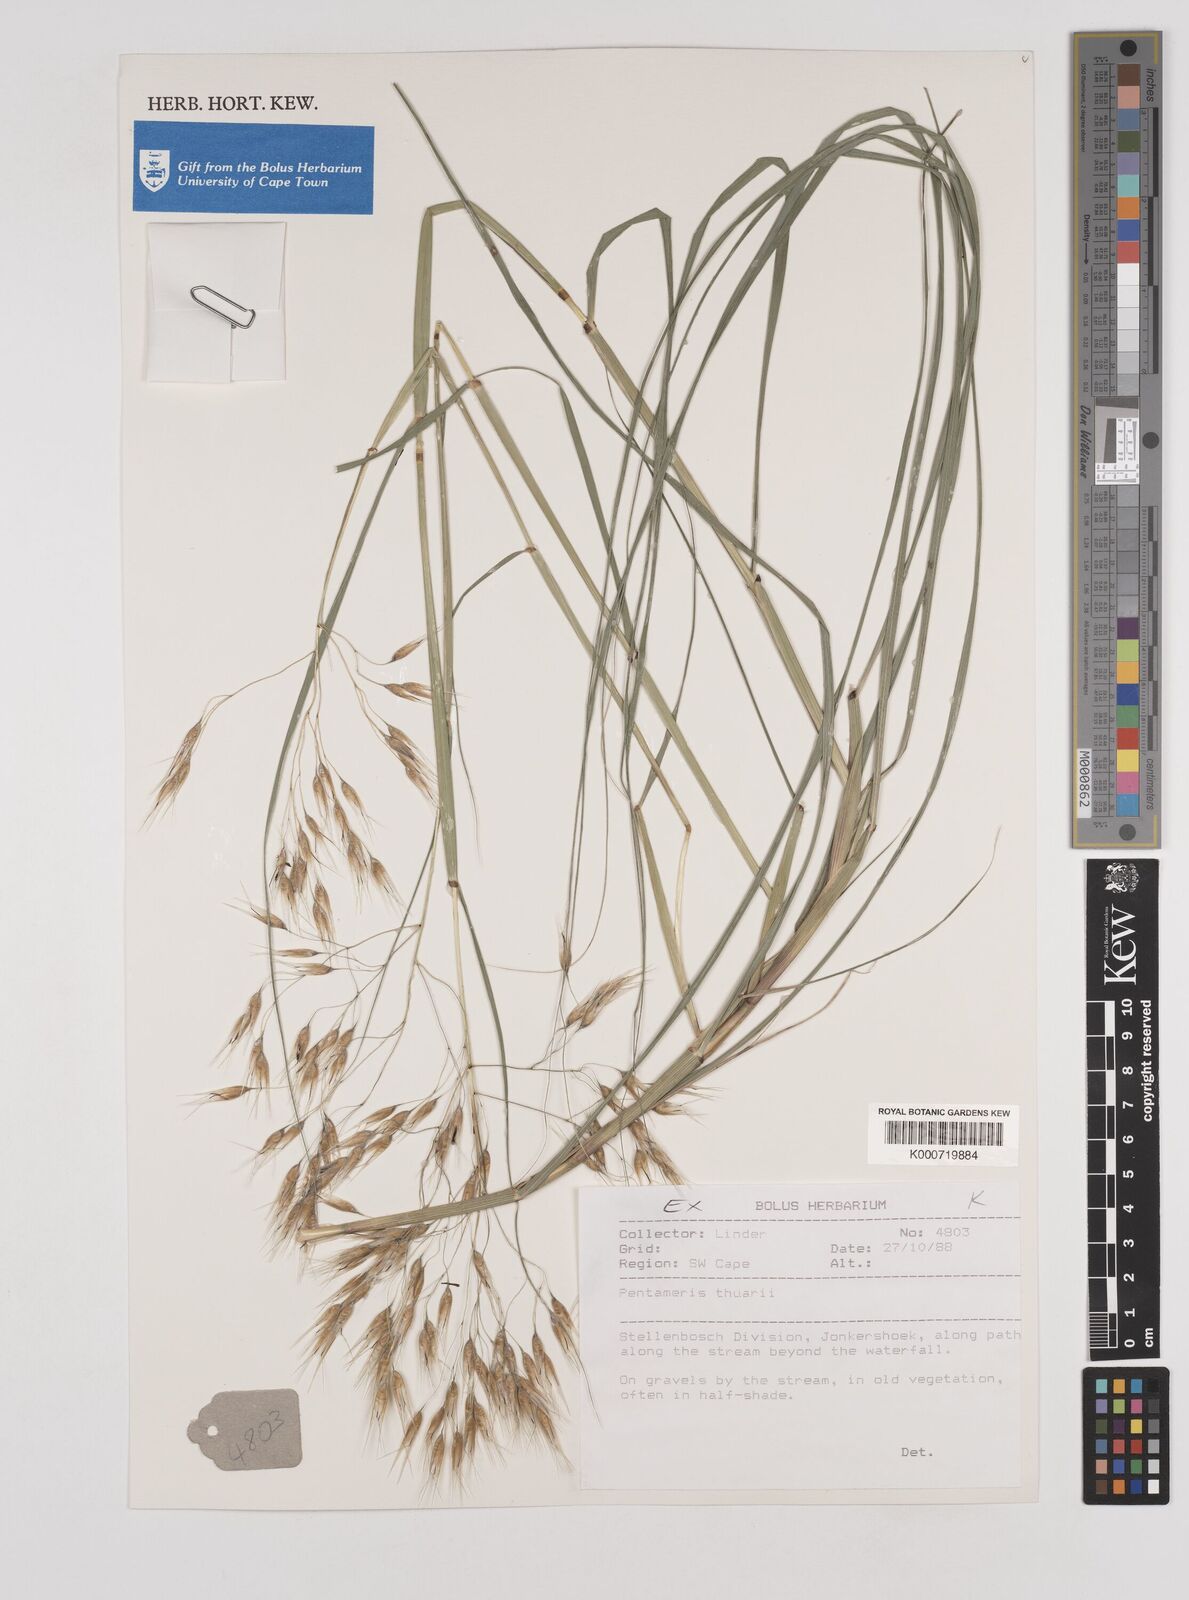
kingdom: Plantae
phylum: Tracheophyta
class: Liliopsida
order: Poales
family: Poaceae
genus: Pentameris
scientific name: Pentameris thuarii
